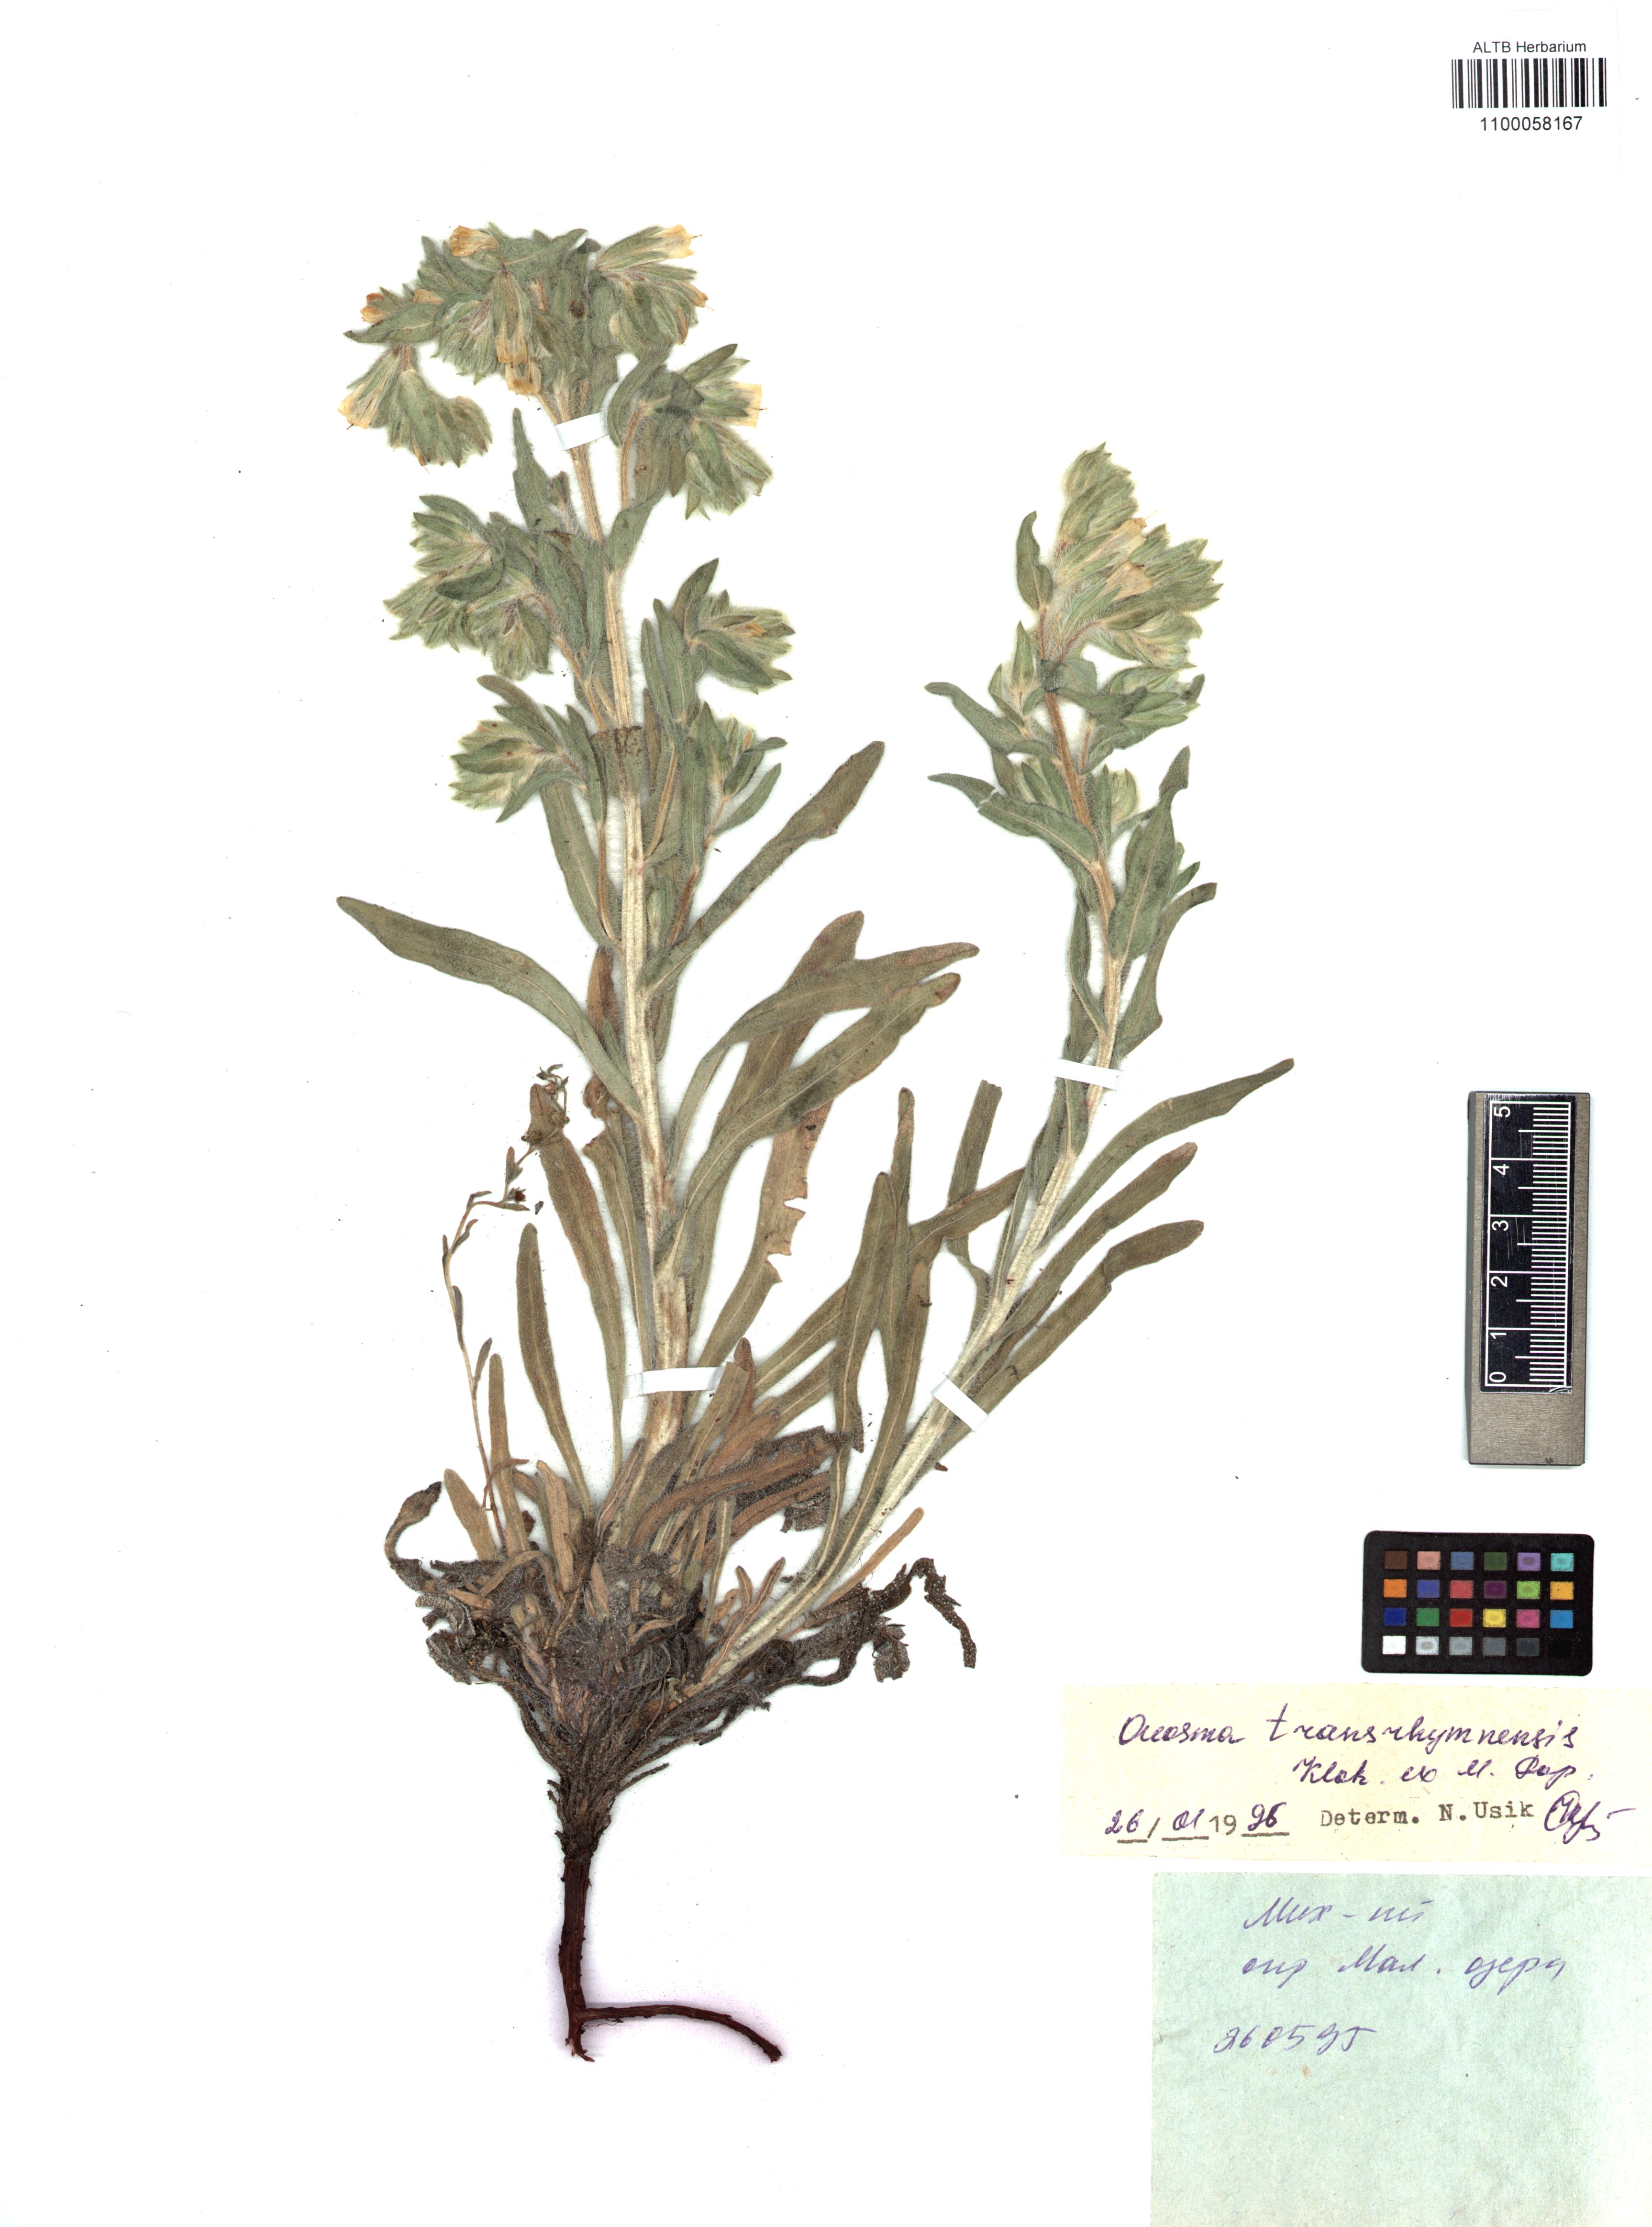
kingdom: Plantae
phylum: Tracheophyta
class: Magnoliopsida
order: Boraginales
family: Boraginaceae
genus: Onosma
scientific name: Onosma setosa
